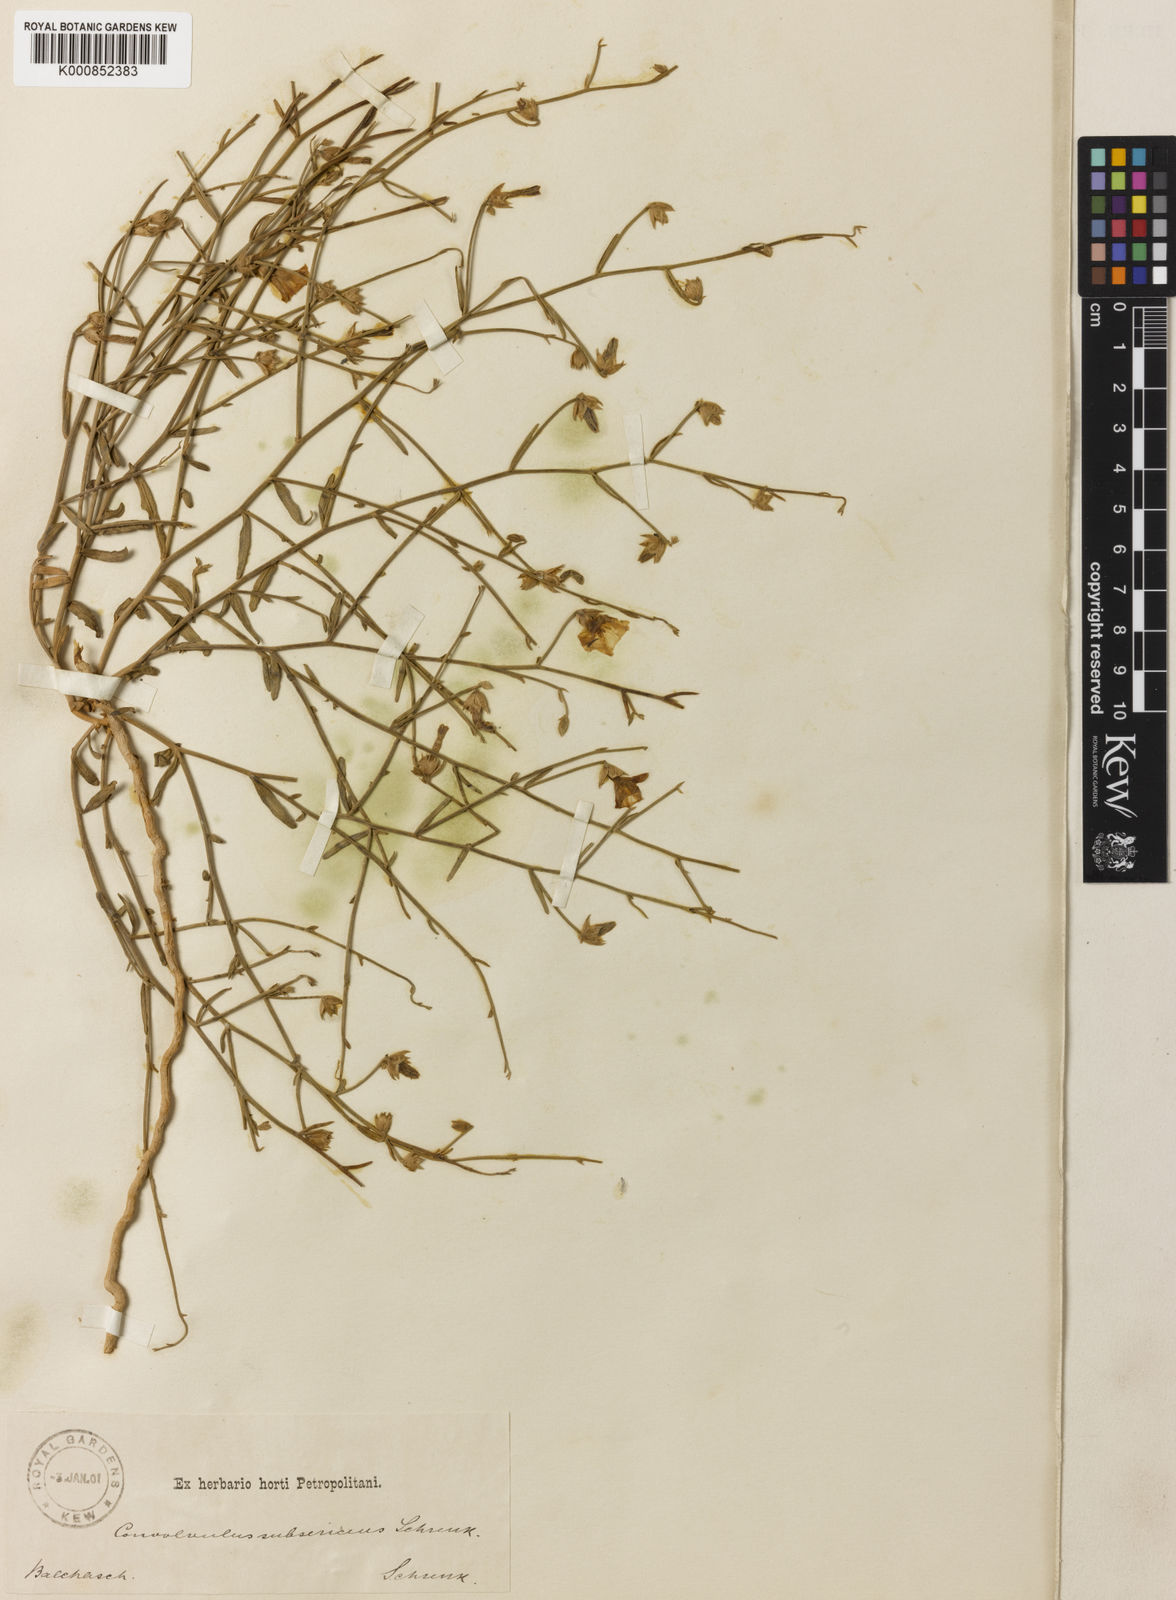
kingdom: Plantae
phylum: Tracheophyta
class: Magnoliopsida
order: Solanales
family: Convolvulaceae
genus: Convolvulus
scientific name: Convolvulus subsericeus
